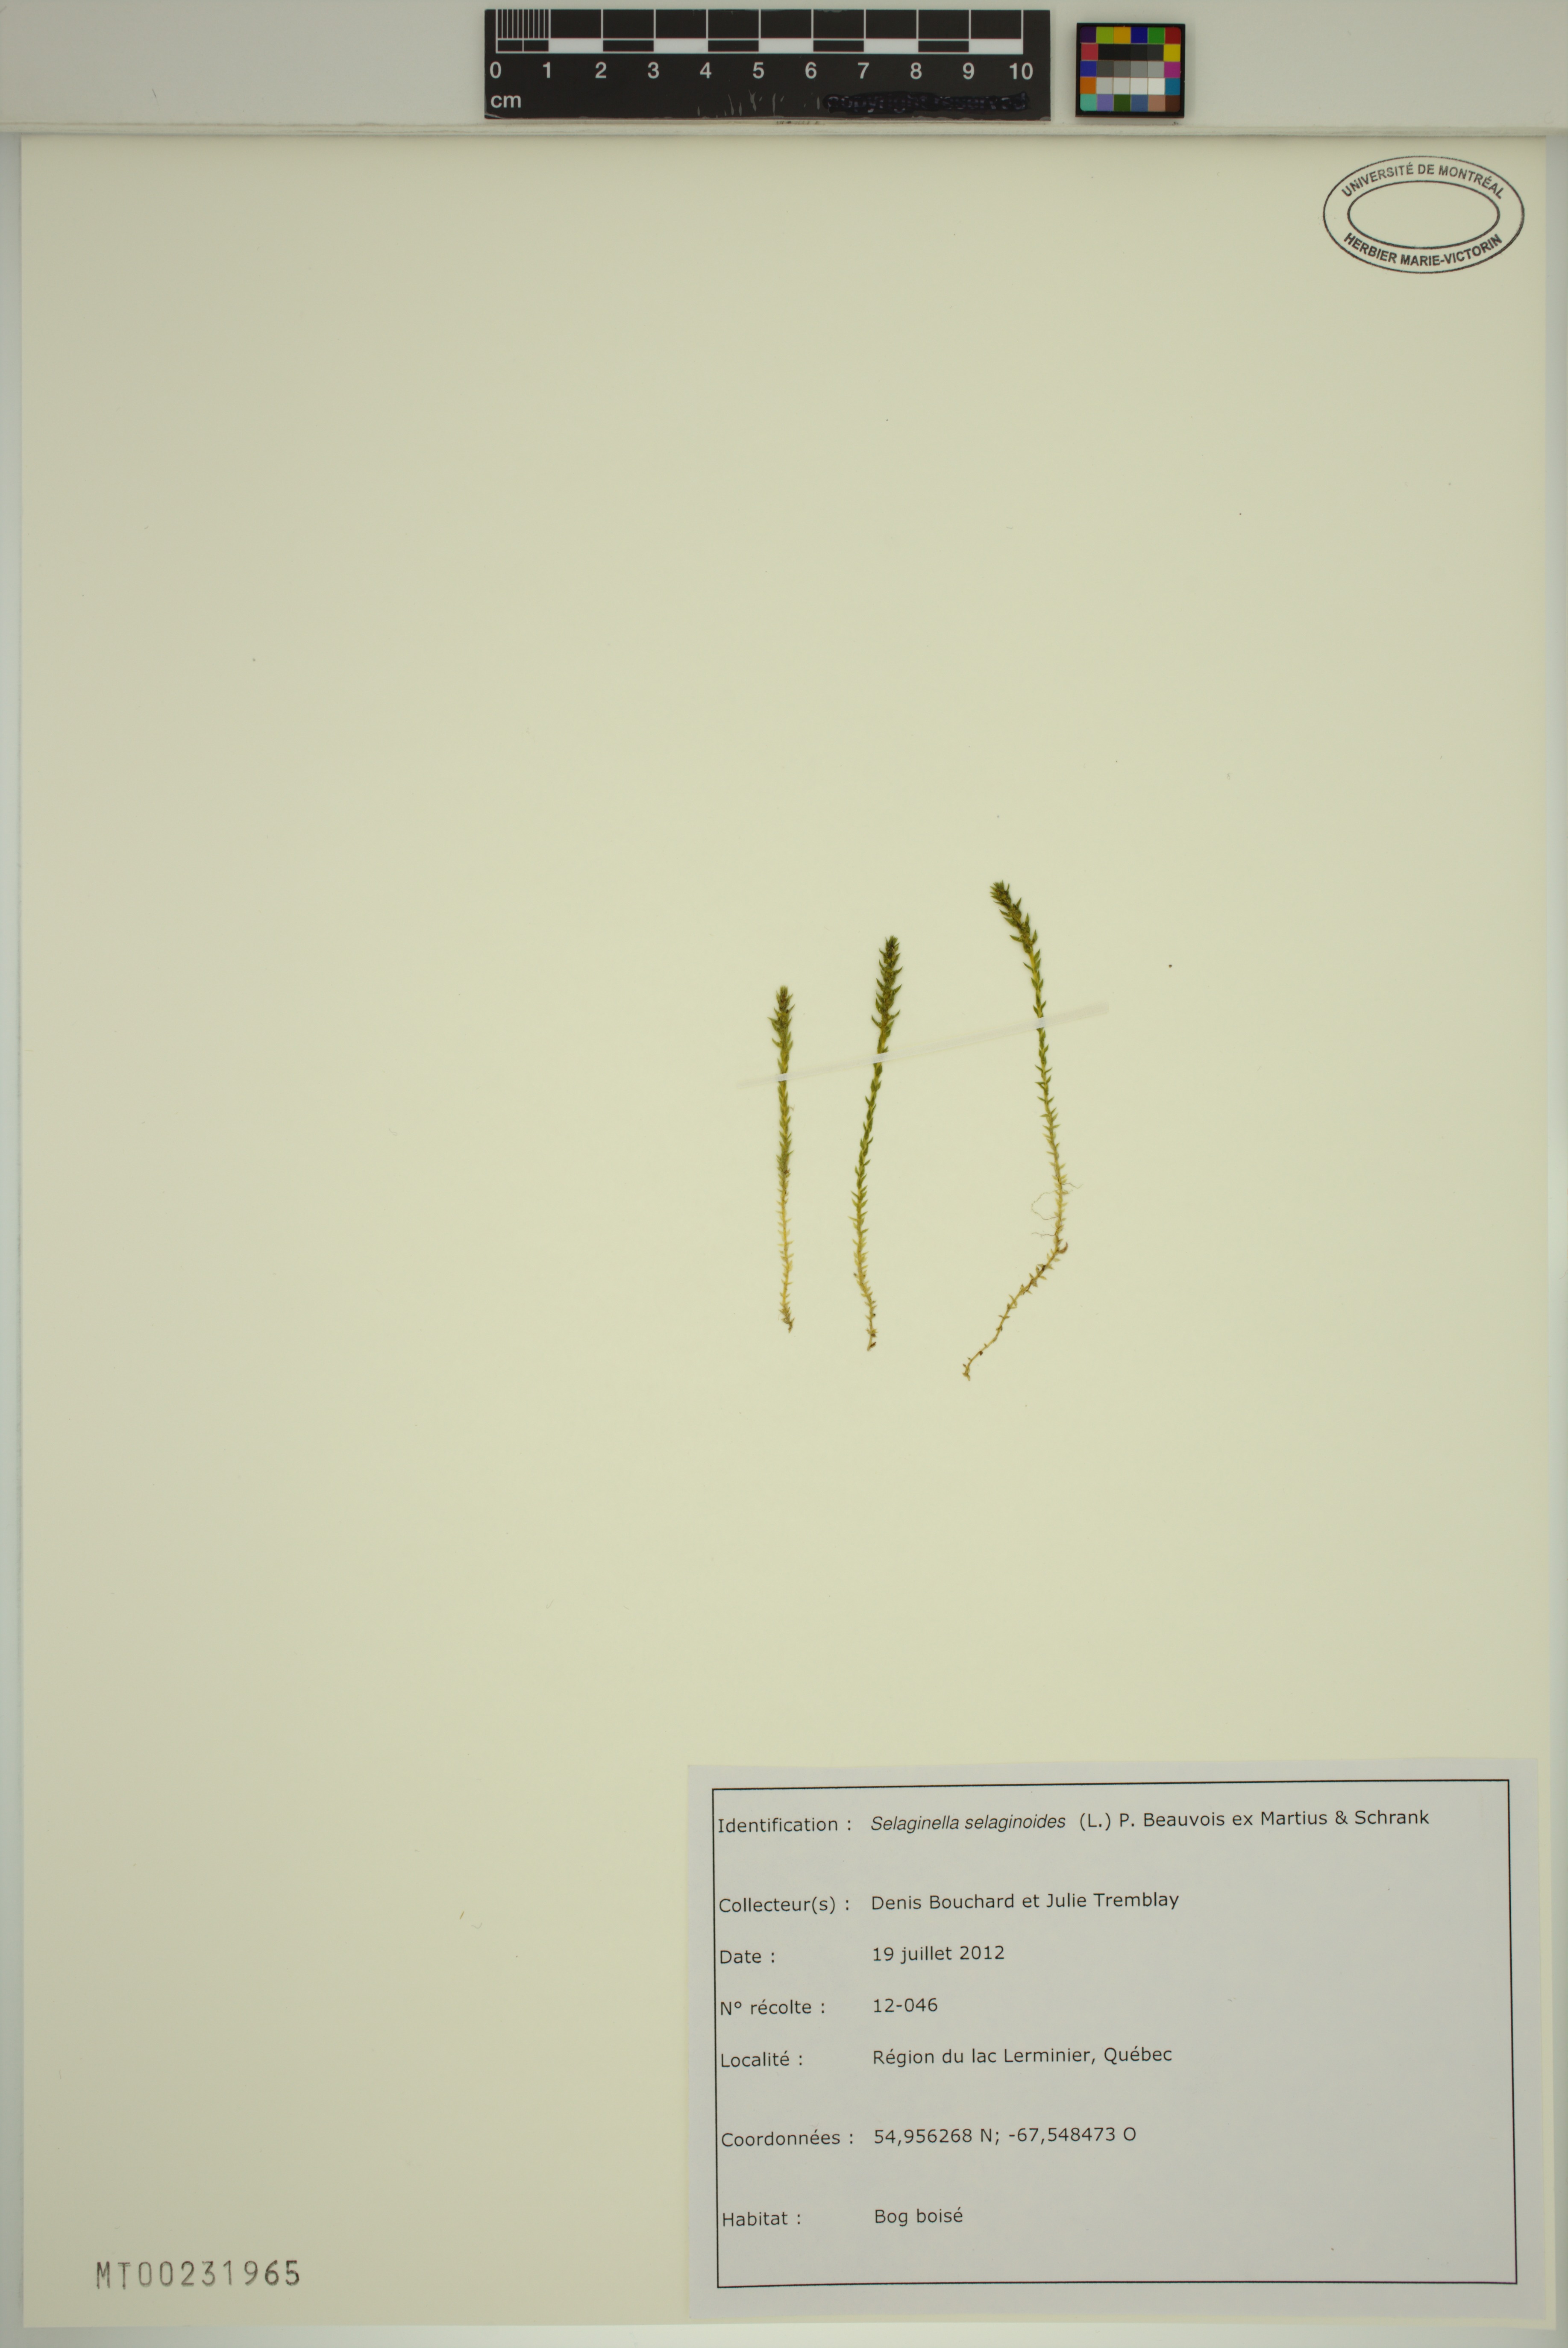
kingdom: Plantae
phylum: Tracheophyta
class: Lycopodiopsida
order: Selaginellales
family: Selaginellaceae
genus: Selaginella
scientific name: Selaginella selaginoides
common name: Prickly mountain-moss
